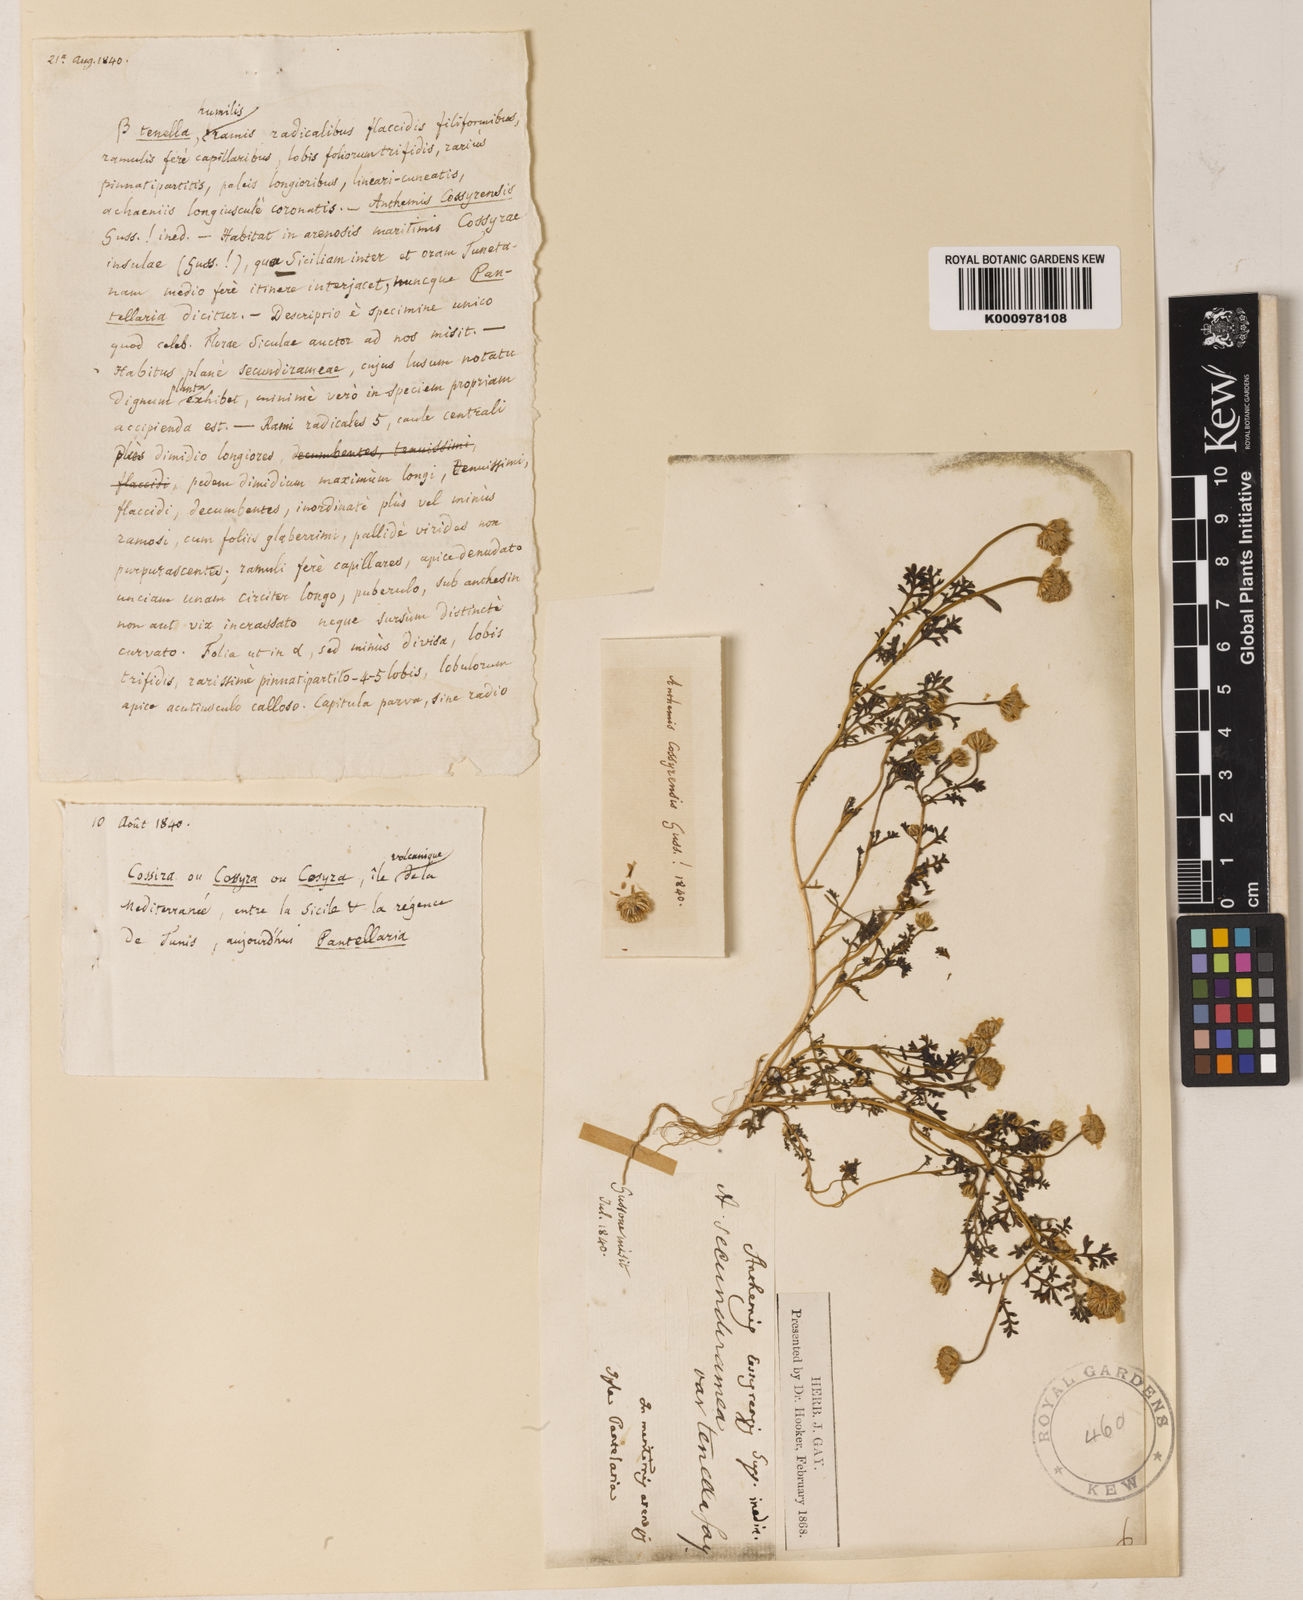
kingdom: Plantae
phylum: Tracheophyta
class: Magnoliopsida
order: Asterales
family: Asteraceae
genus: Anthemis
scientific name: Anthemis secundiramea
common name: Prostrate chamomile
